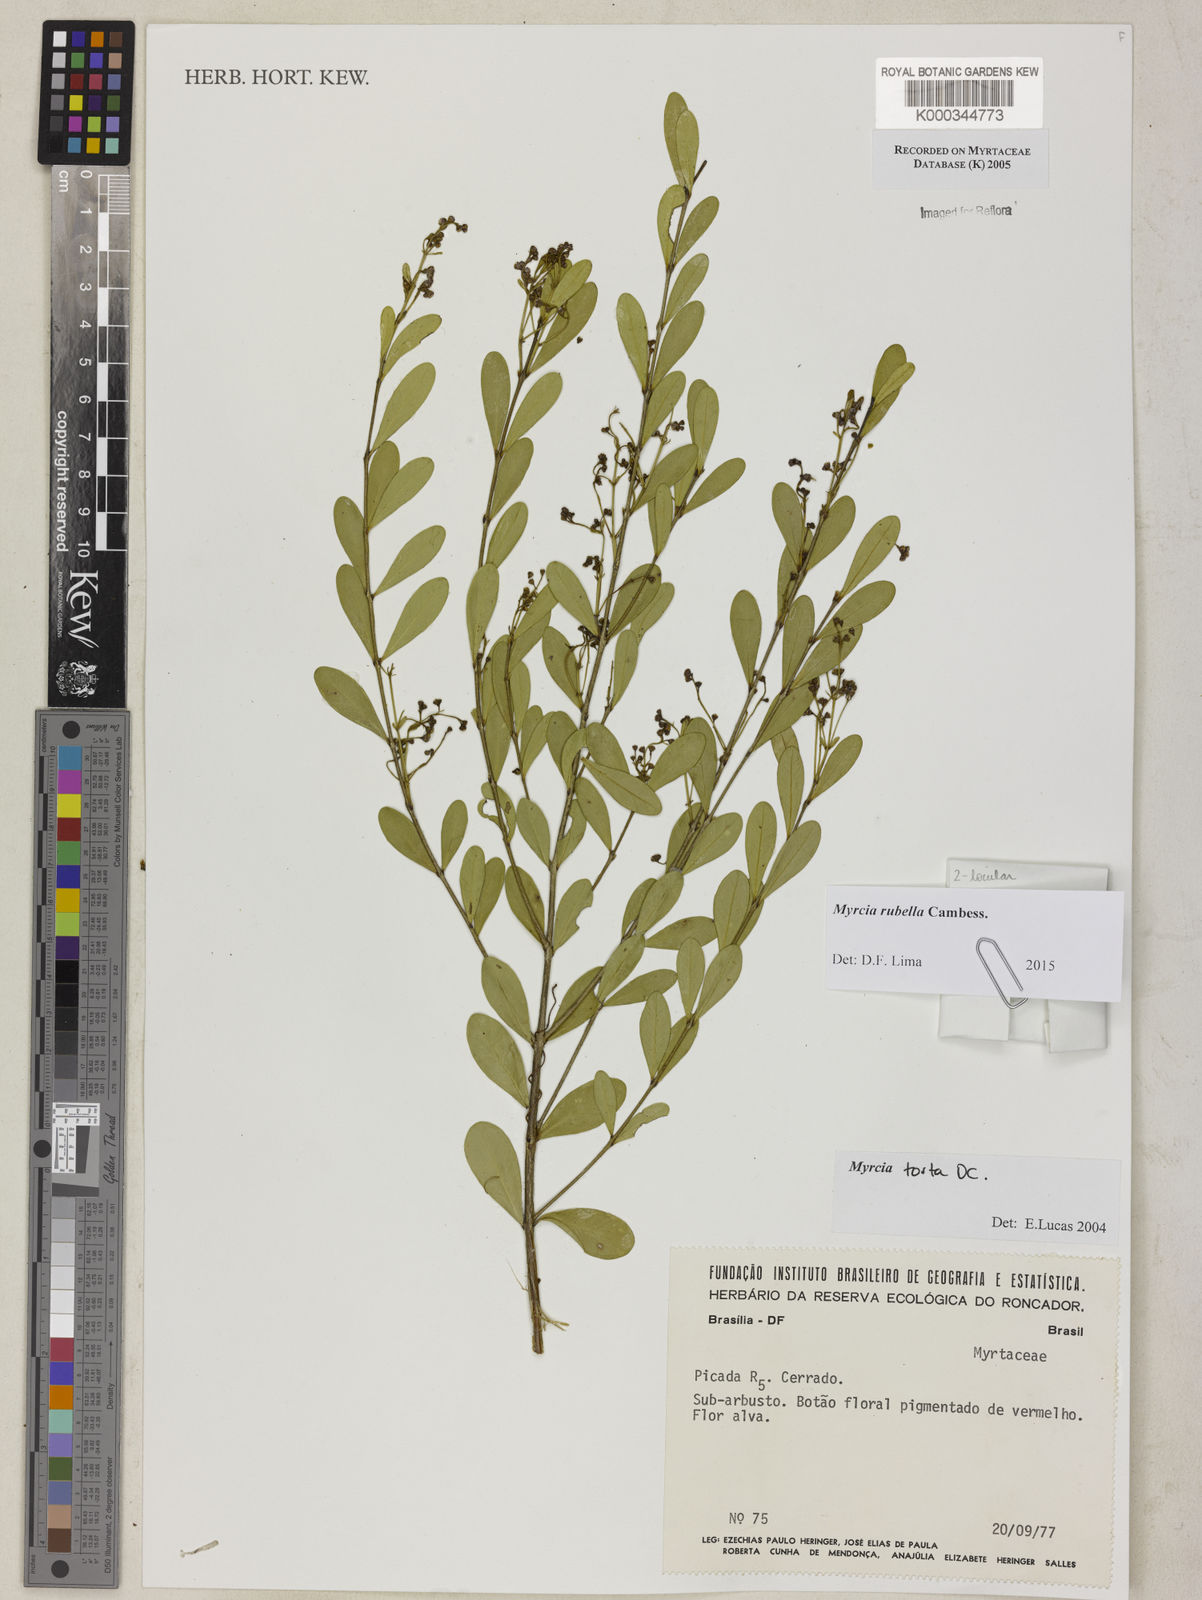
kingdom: Plantae
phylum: Tracheophyta
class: Magnoliopsida
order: Myrtales
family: Myrtaceae
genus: Myrcia
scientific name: Myrcia guianensis
